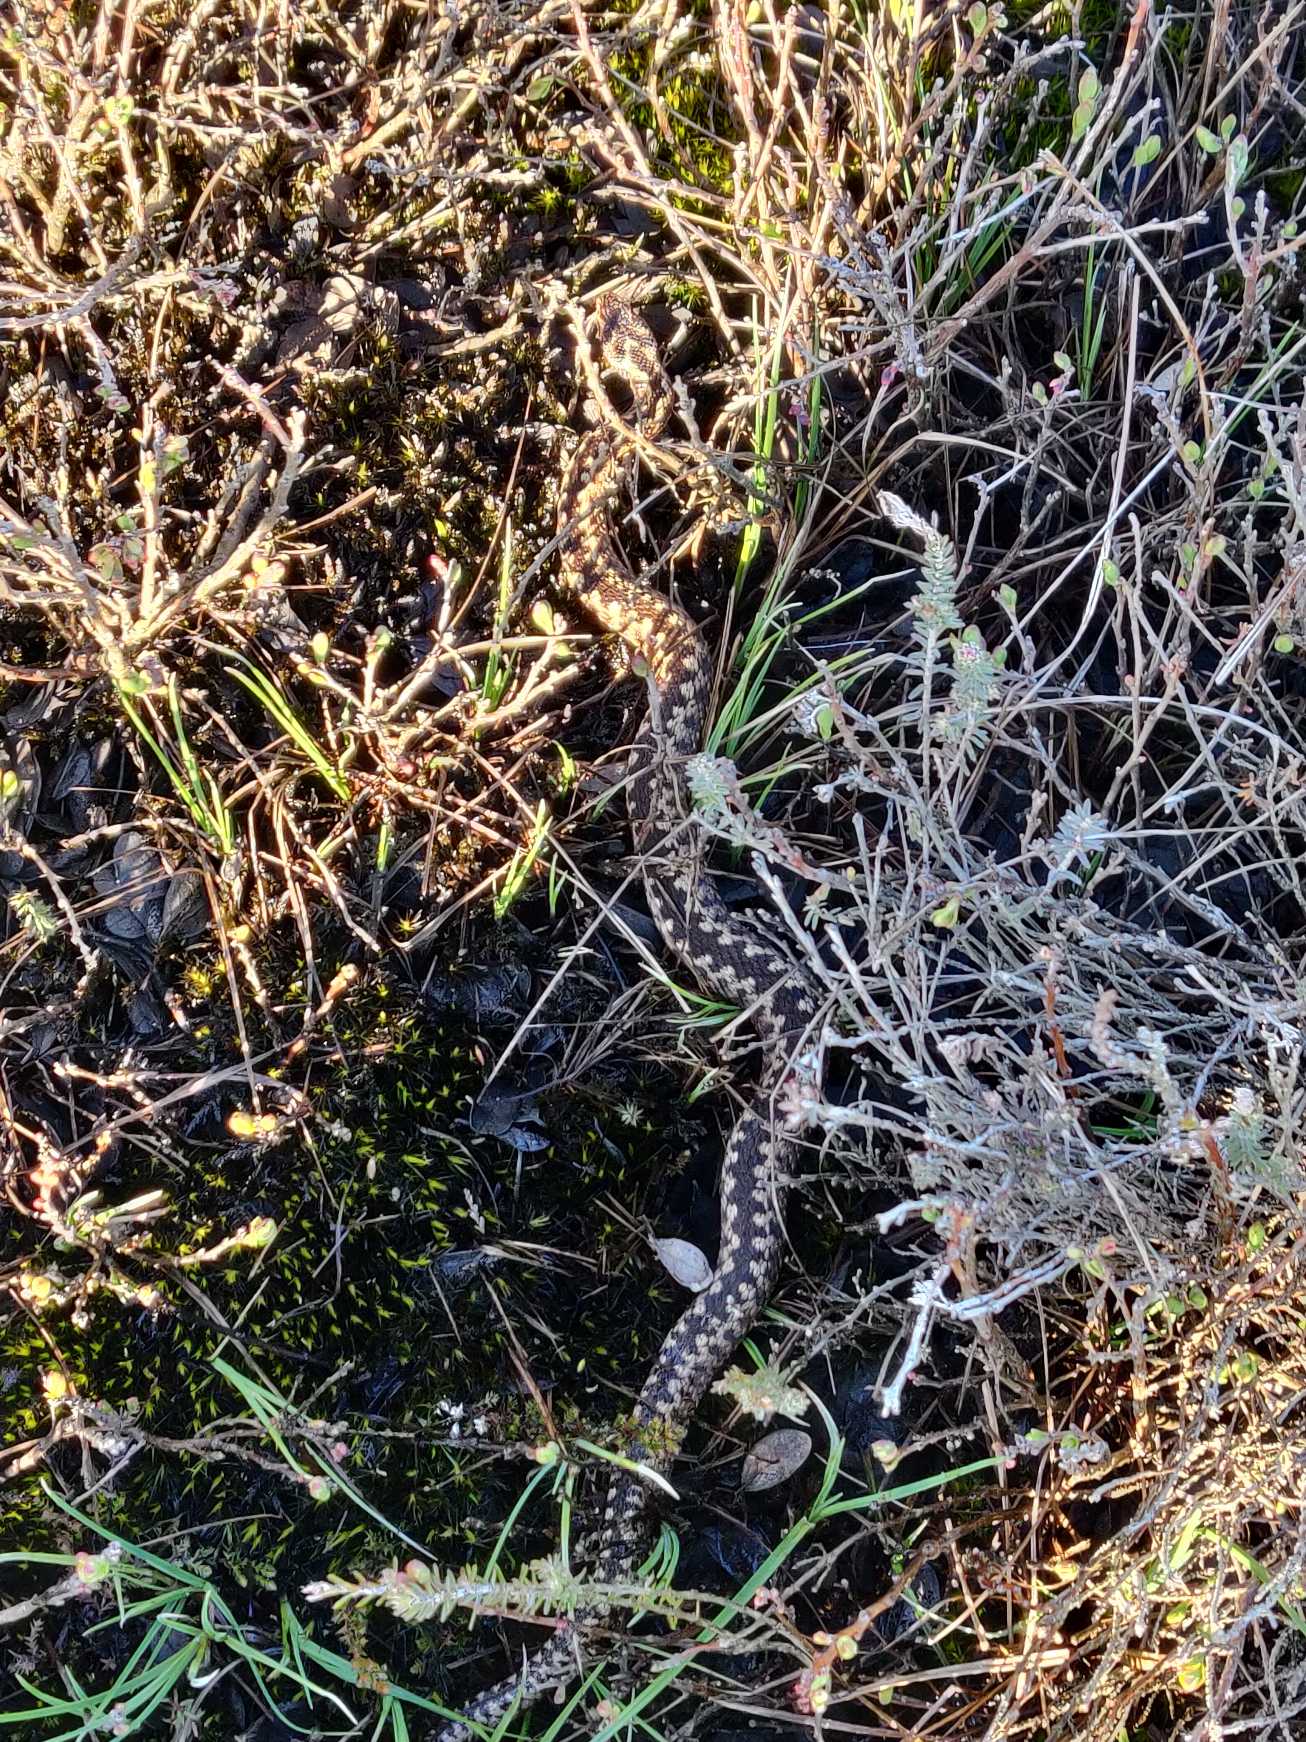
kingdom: Animalia
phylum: Chordata
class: Squamata
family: Viperidae
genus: Vipera
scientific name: Vipera berus
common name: Hugorm
